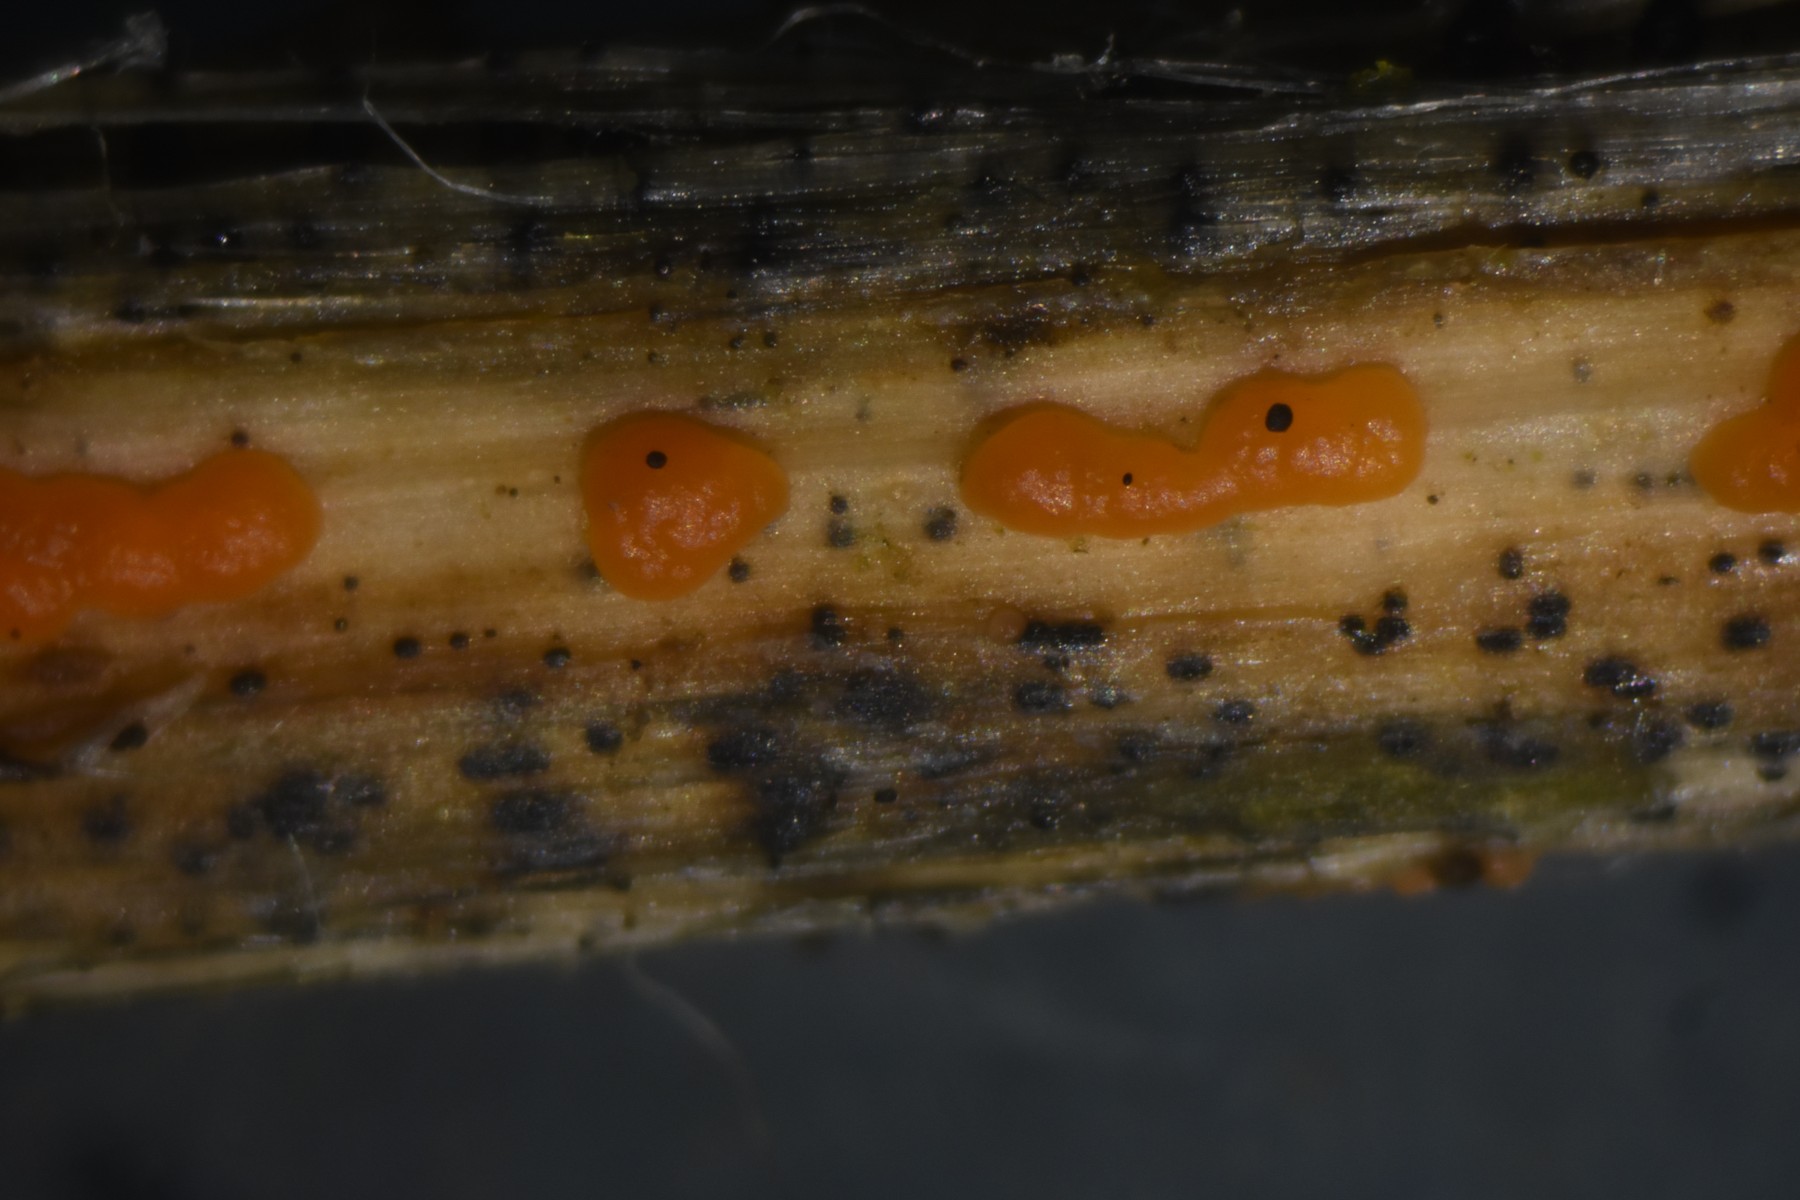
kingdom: Fungi
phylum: Ascomycota
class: Leotiomycetes
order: Helotiales
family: Calloriaceae
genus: Calloria
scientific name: Calloria urticae
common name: nælde-orangeskive
